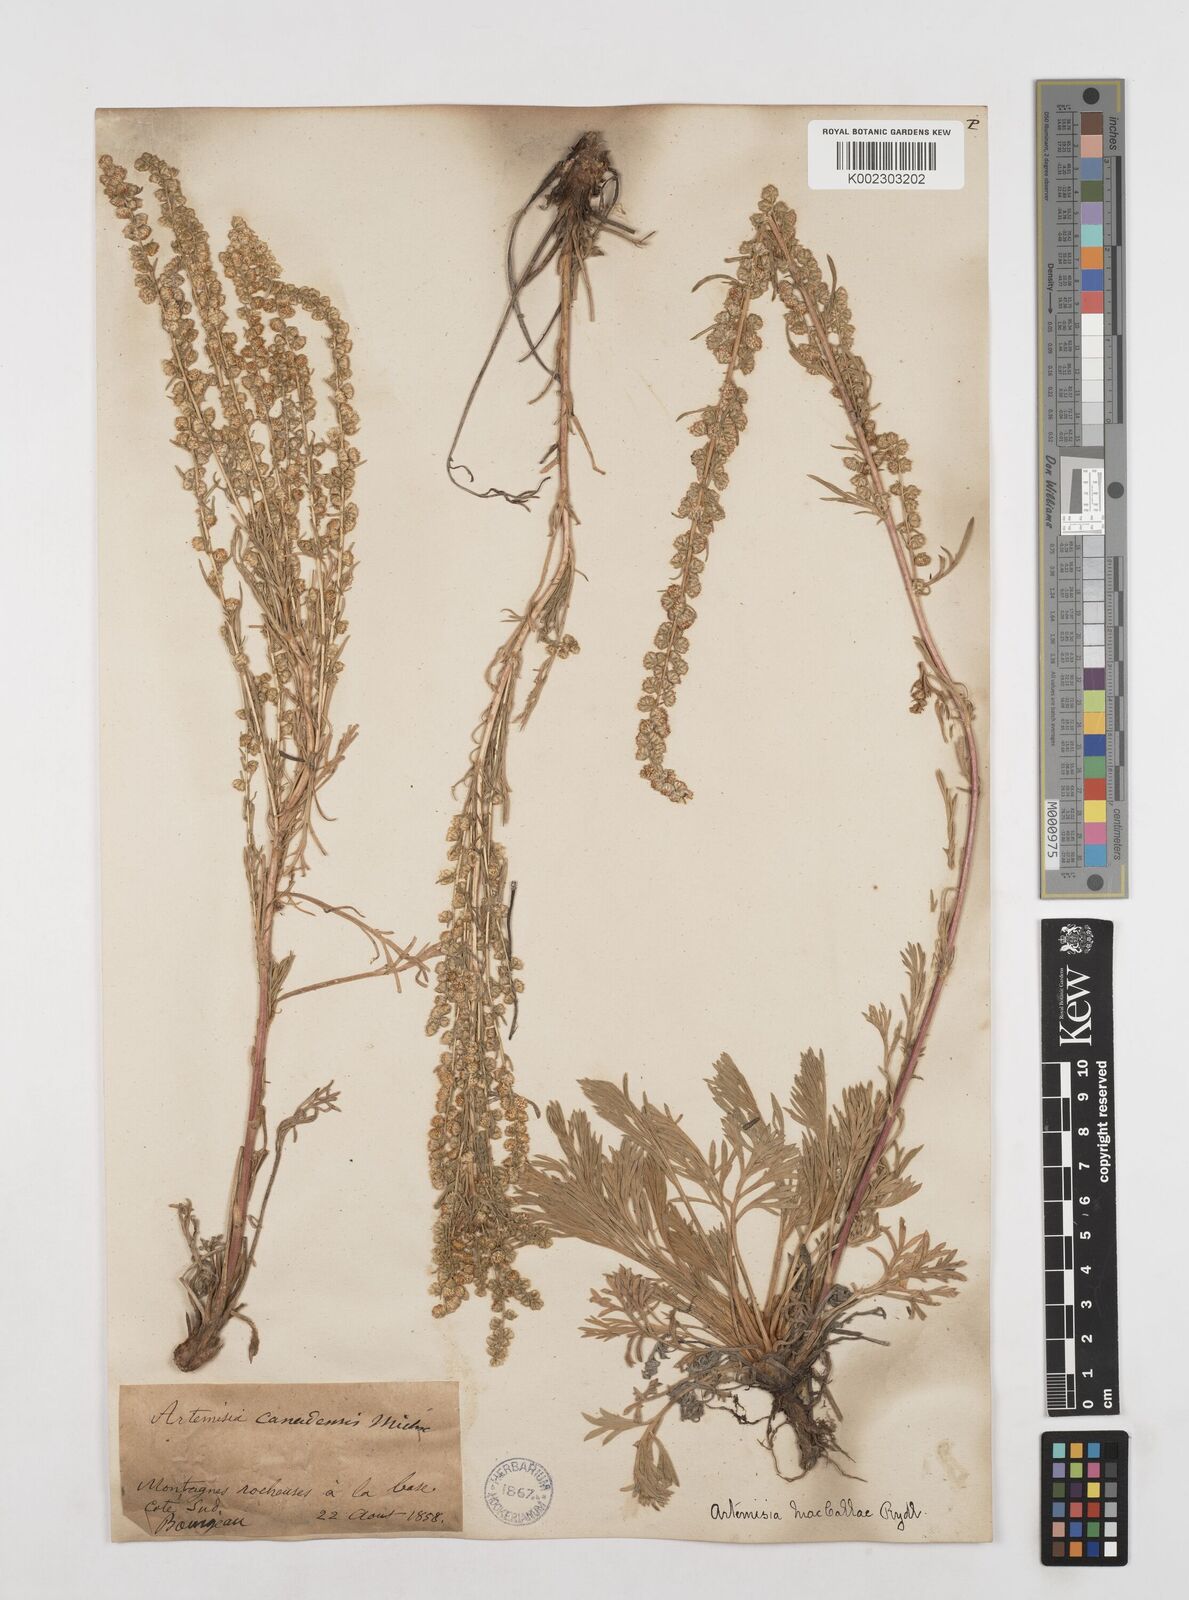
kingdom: Plantae
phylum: Tracheophyta
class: Magnoliopsida
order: Asterales
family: Asteraceae
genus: Artemisia
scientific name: Artemisia campestris
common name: Field wormwood
